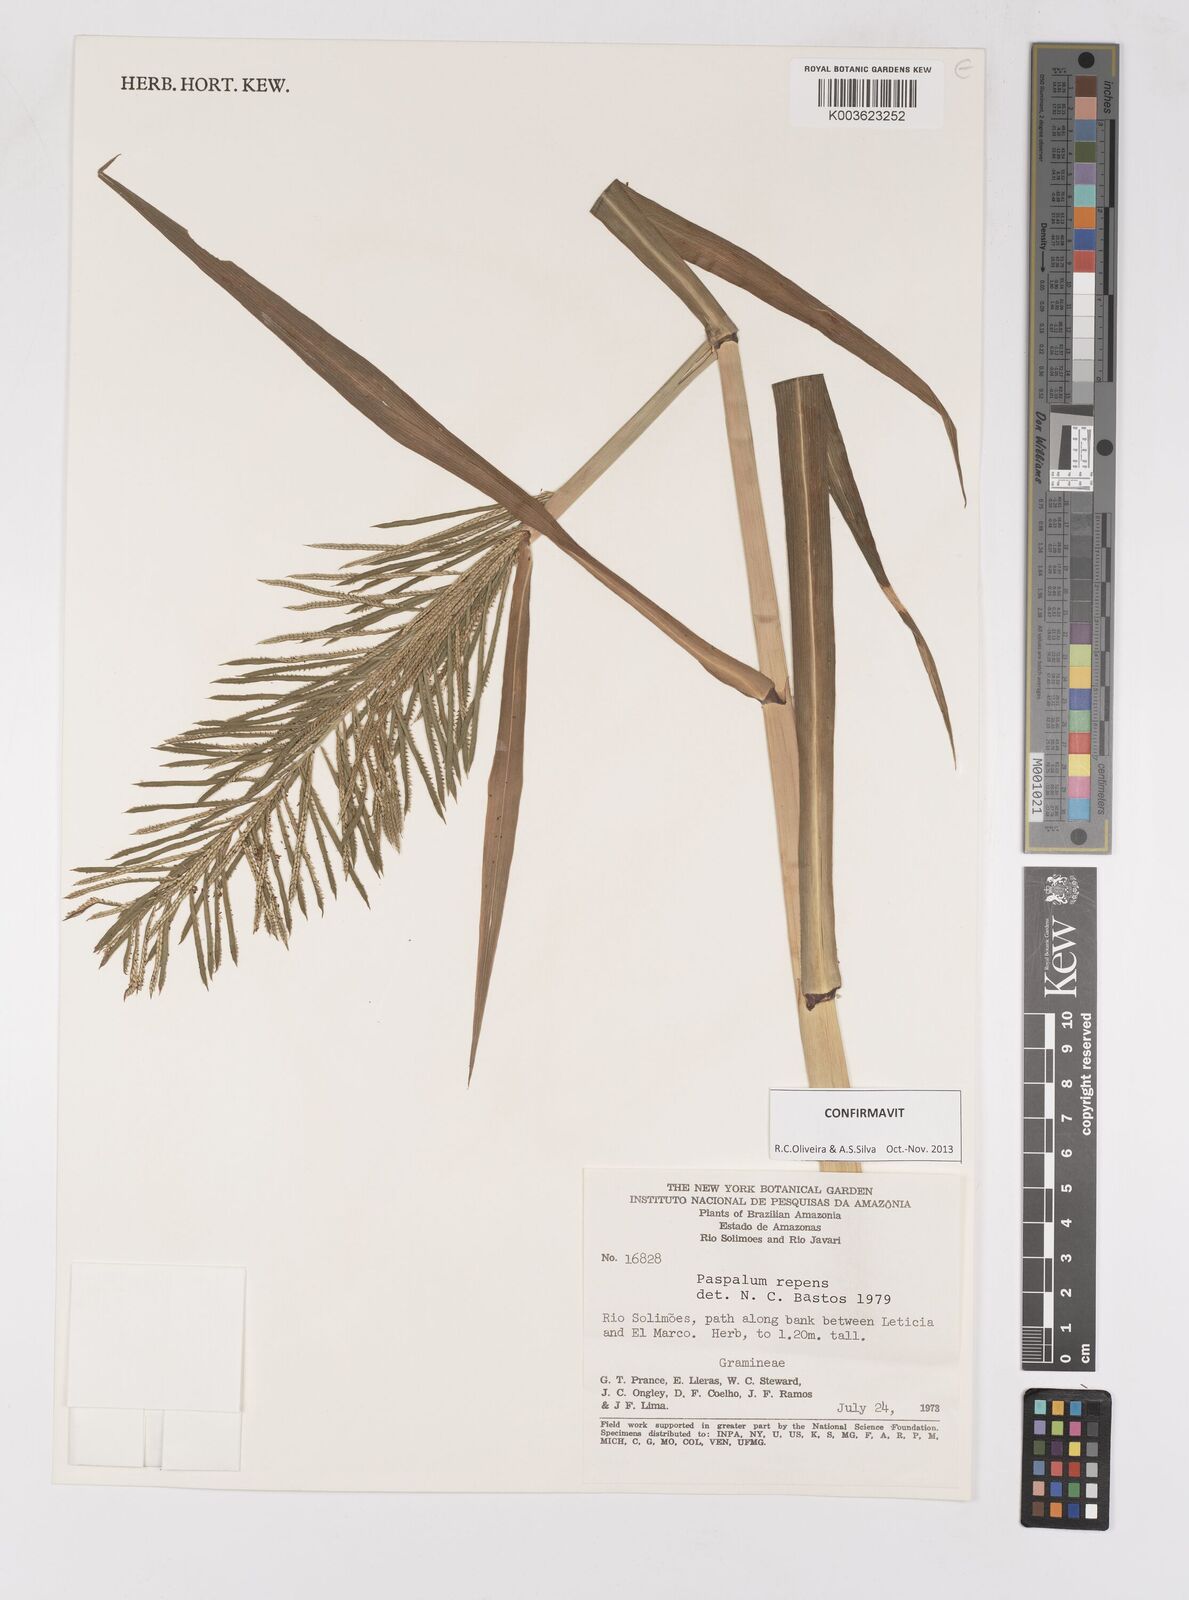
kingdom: Plantae
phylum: Tracheophyta
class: Liliopsida
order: Poales
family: Poaceae
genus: Paspalum
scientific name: Paspalum repens
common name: Water paspalum
